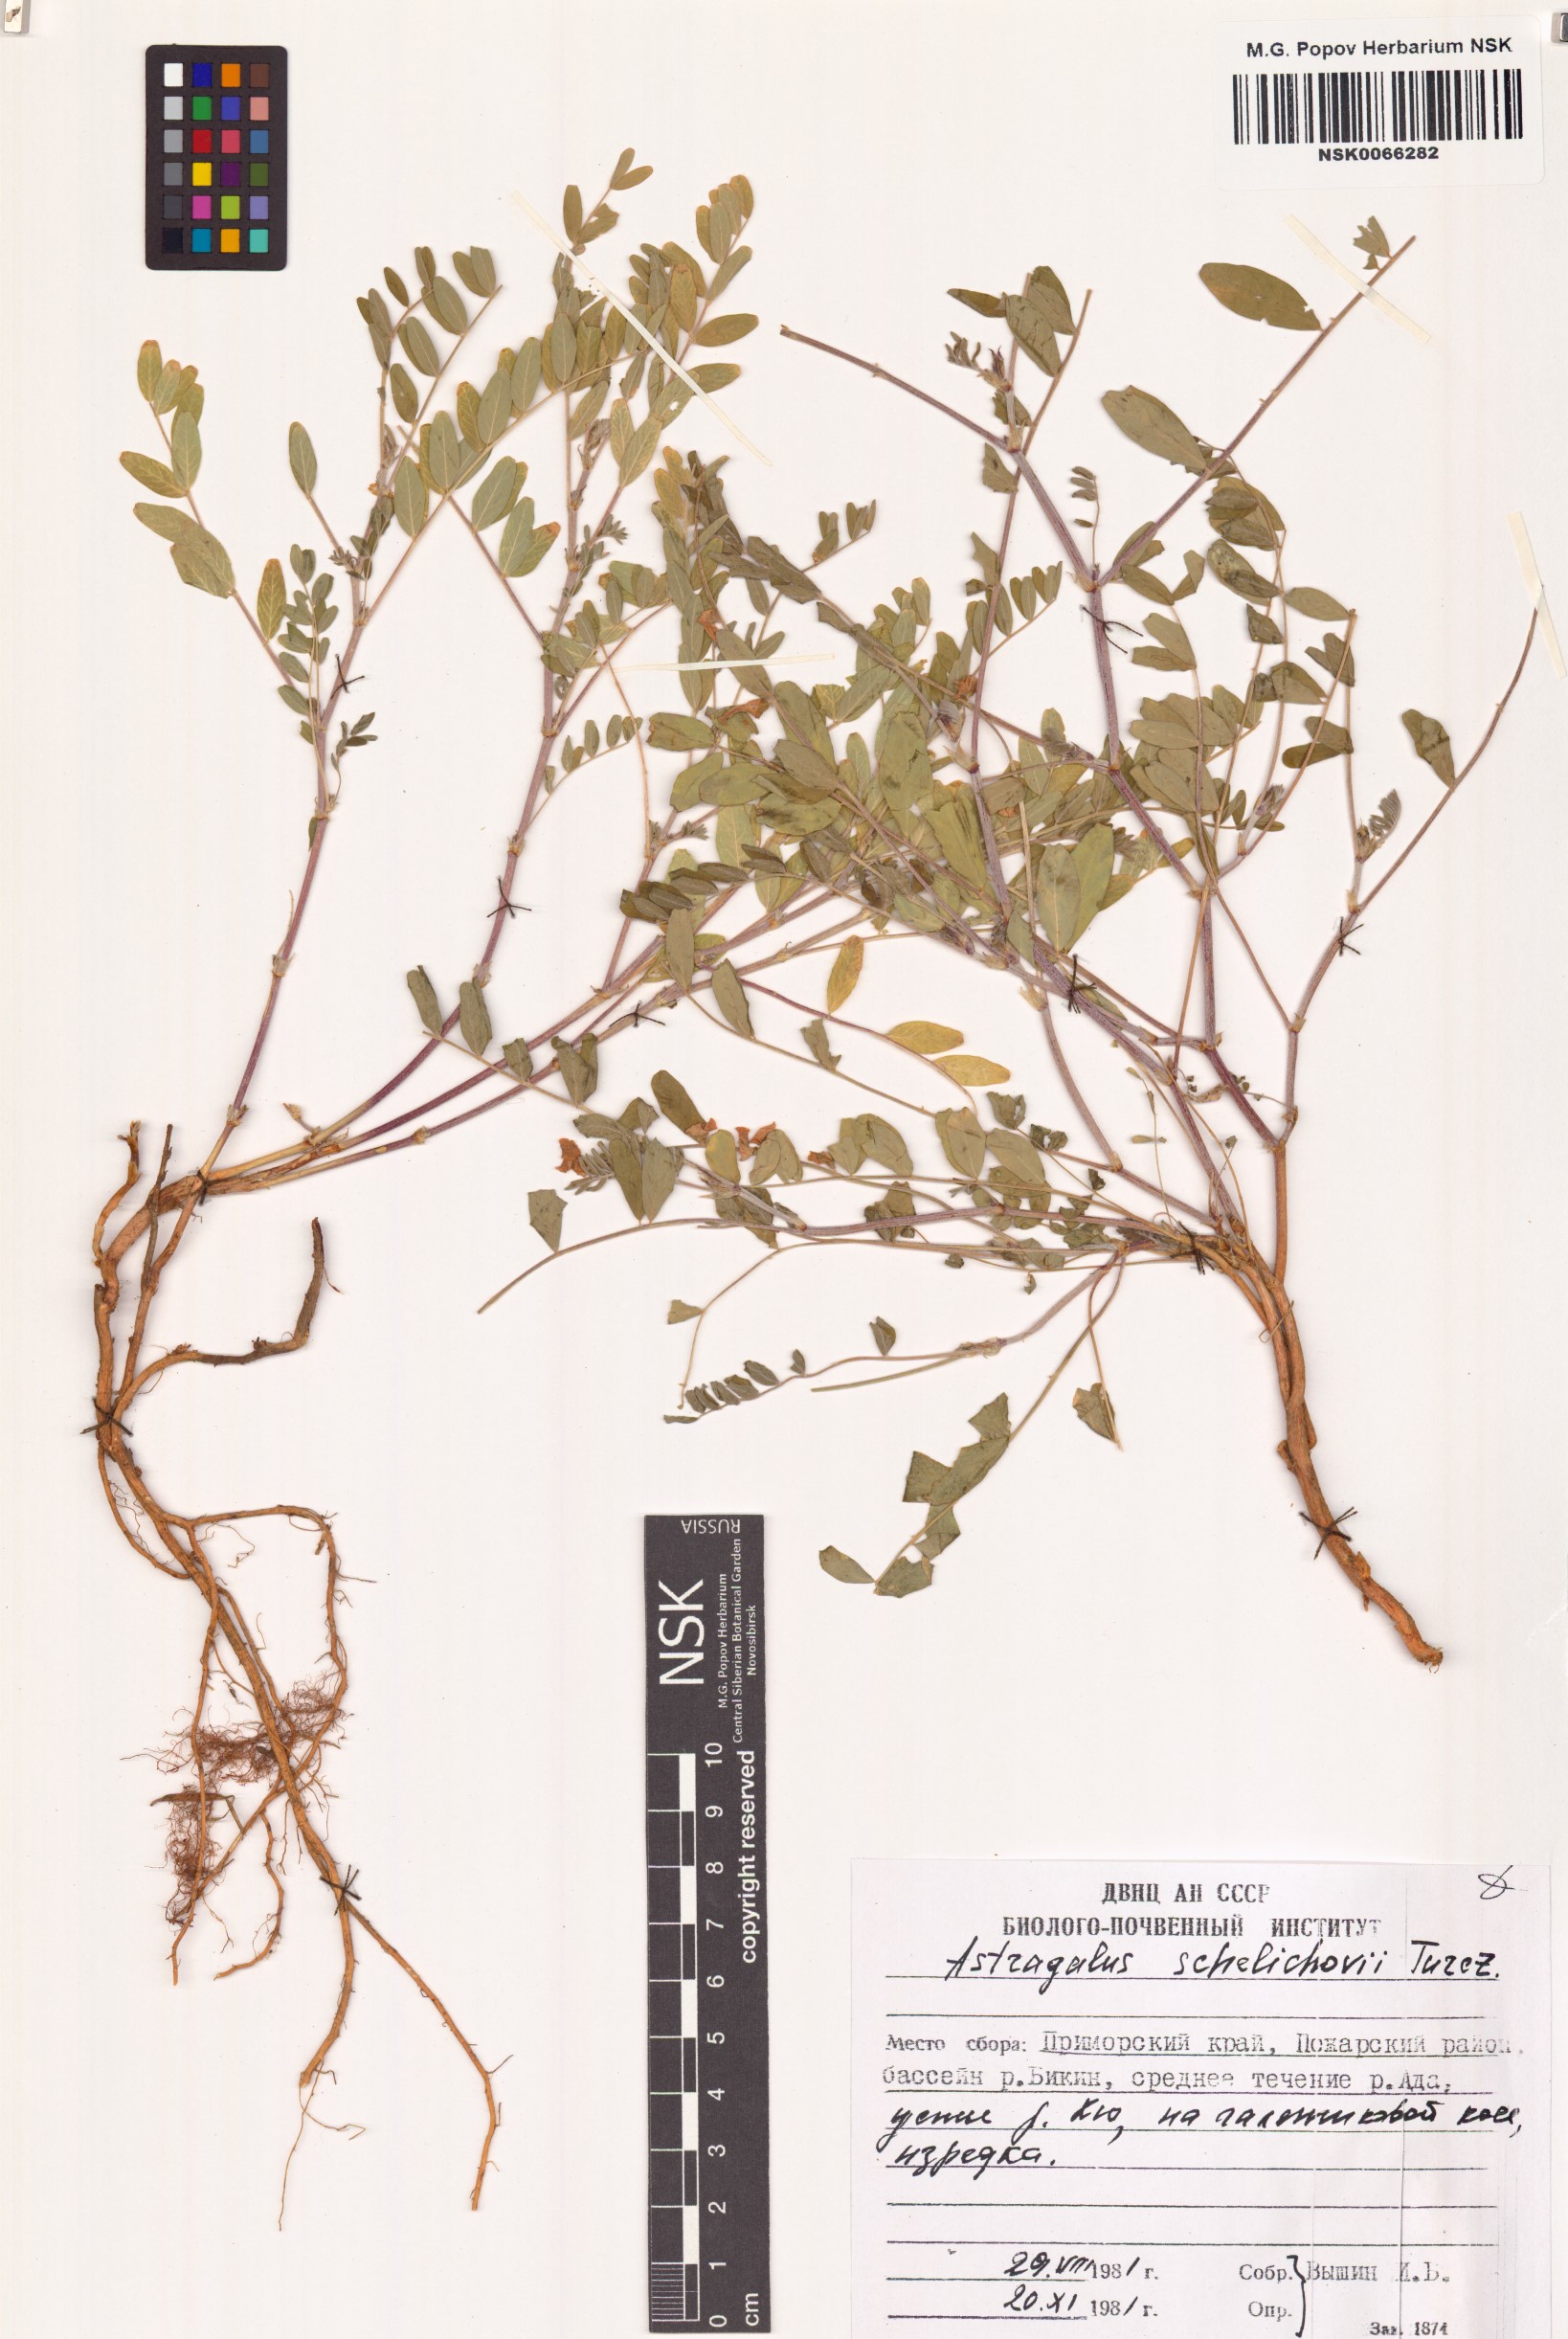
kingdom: Plantae
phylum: Tracheophyta
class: Magnoliopsida
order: Fabales
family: Fabaceae
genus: Astragalus
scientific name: Astragalus schelichowii
